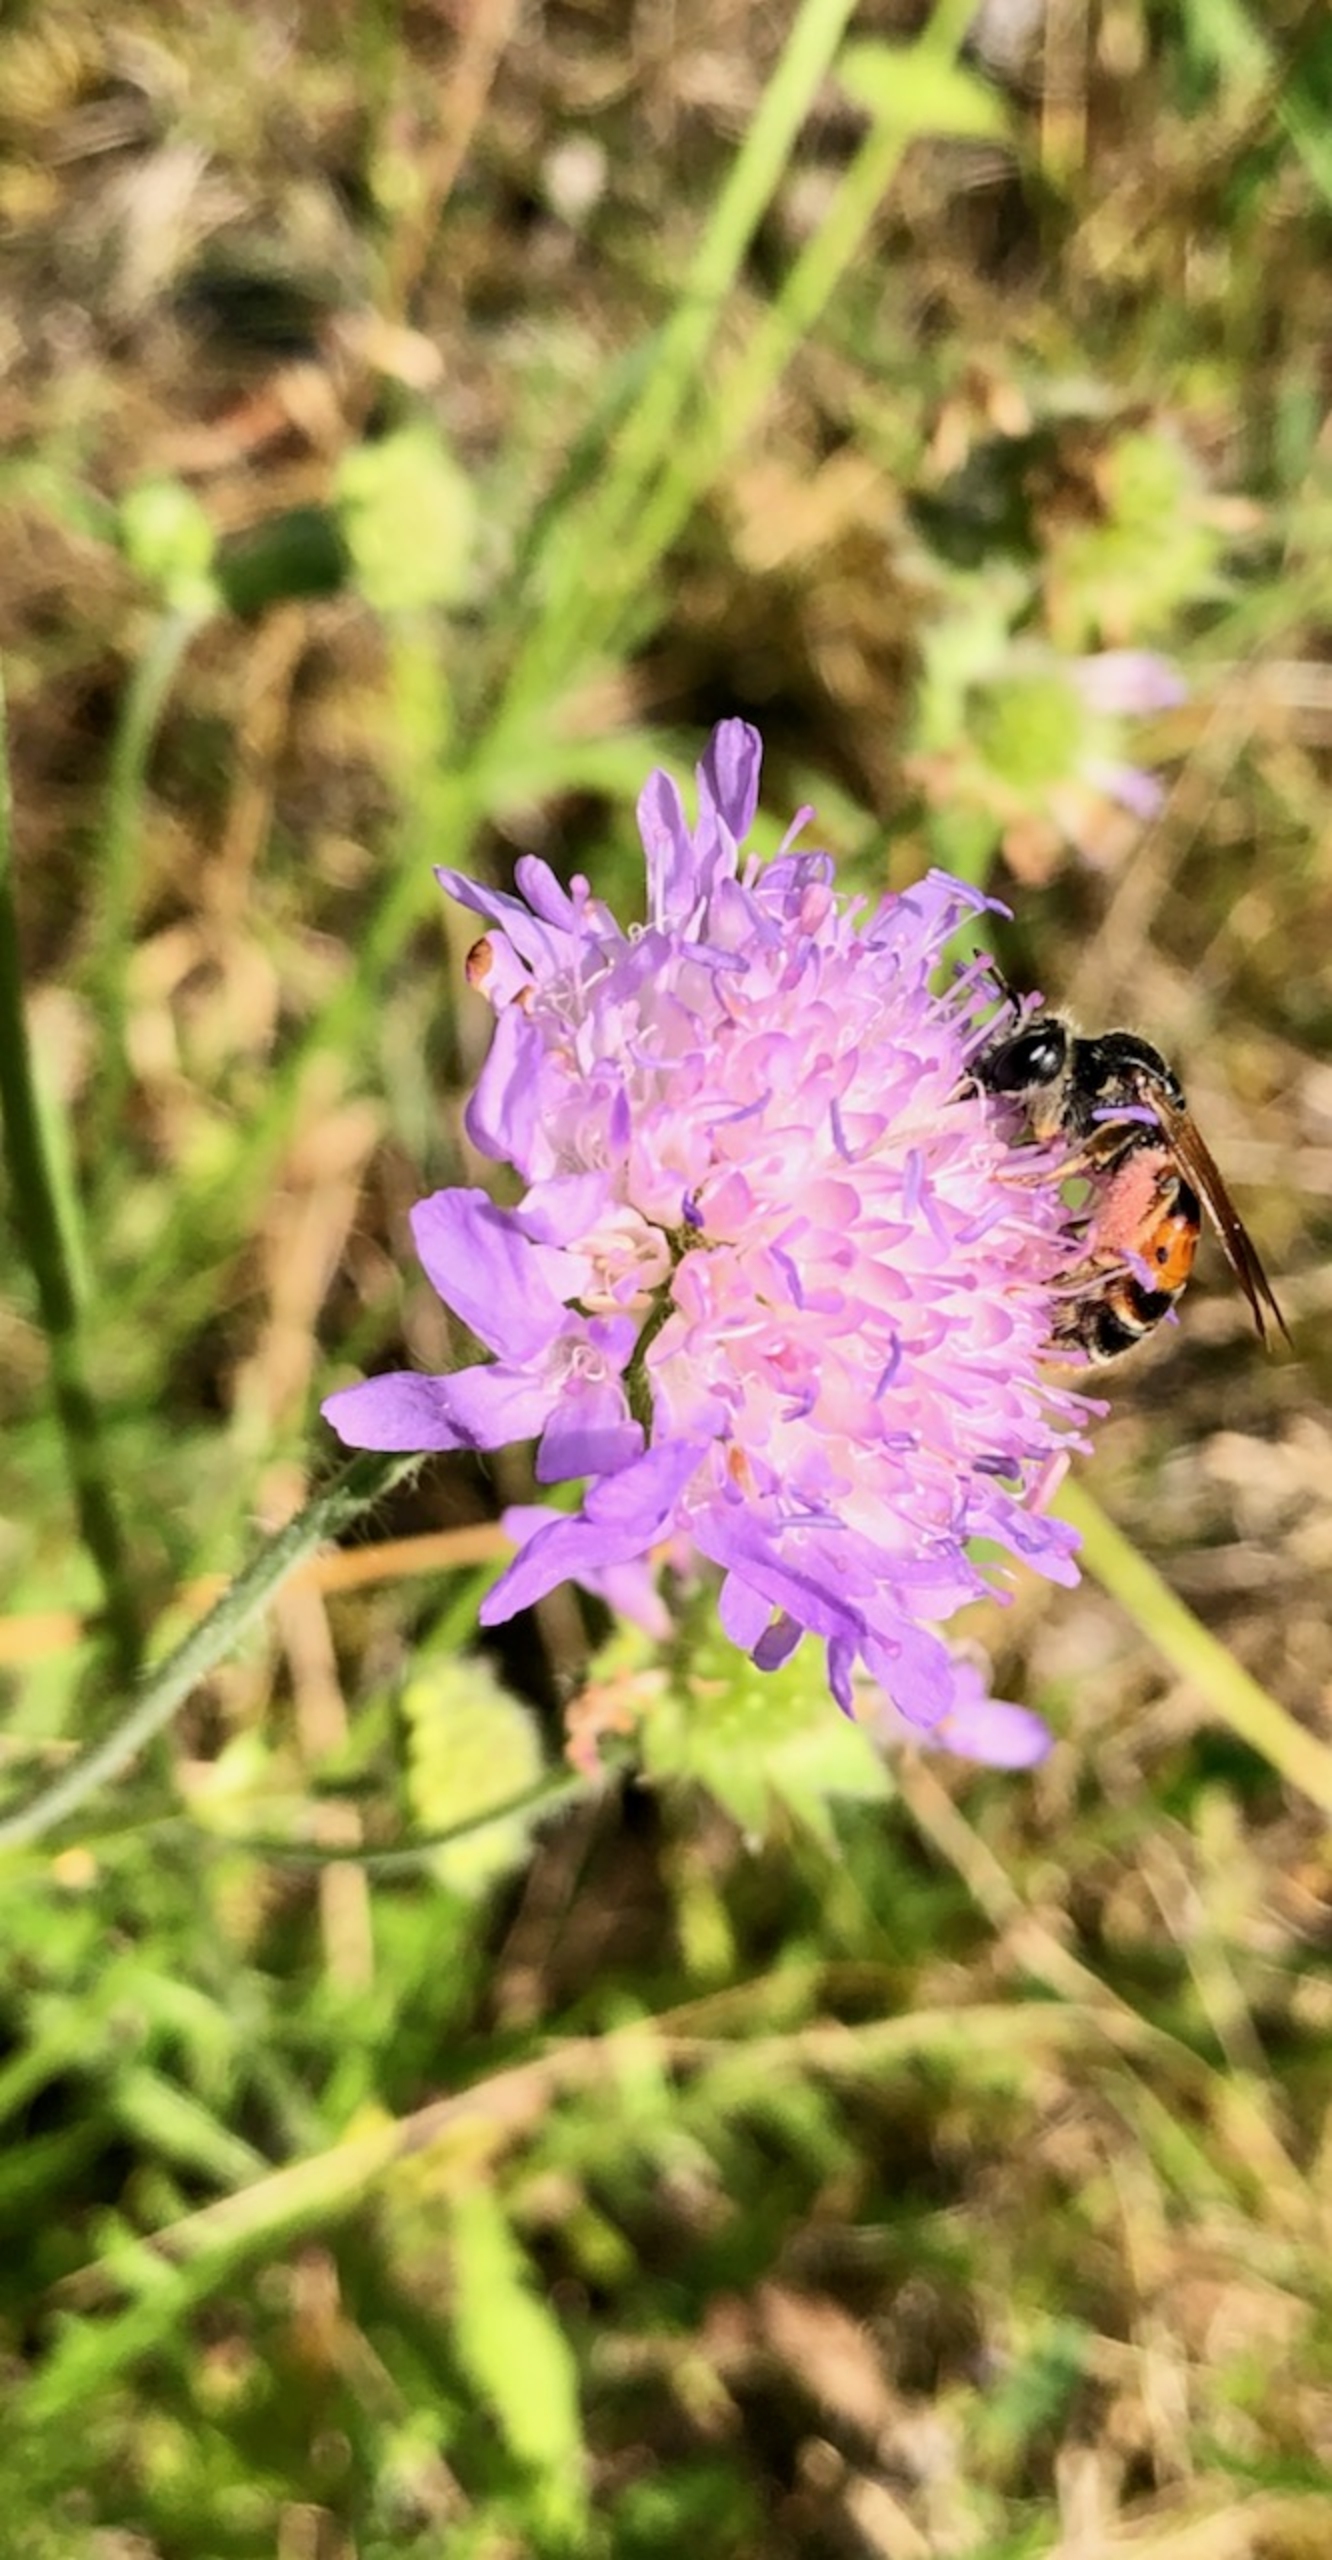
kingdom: Animalia
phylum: Arthropoda
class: Insecta
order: Hymenoptera
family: Andrenidae
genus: Andrena
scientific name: Andrena hattorfiana
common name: Blåhatjordbi
